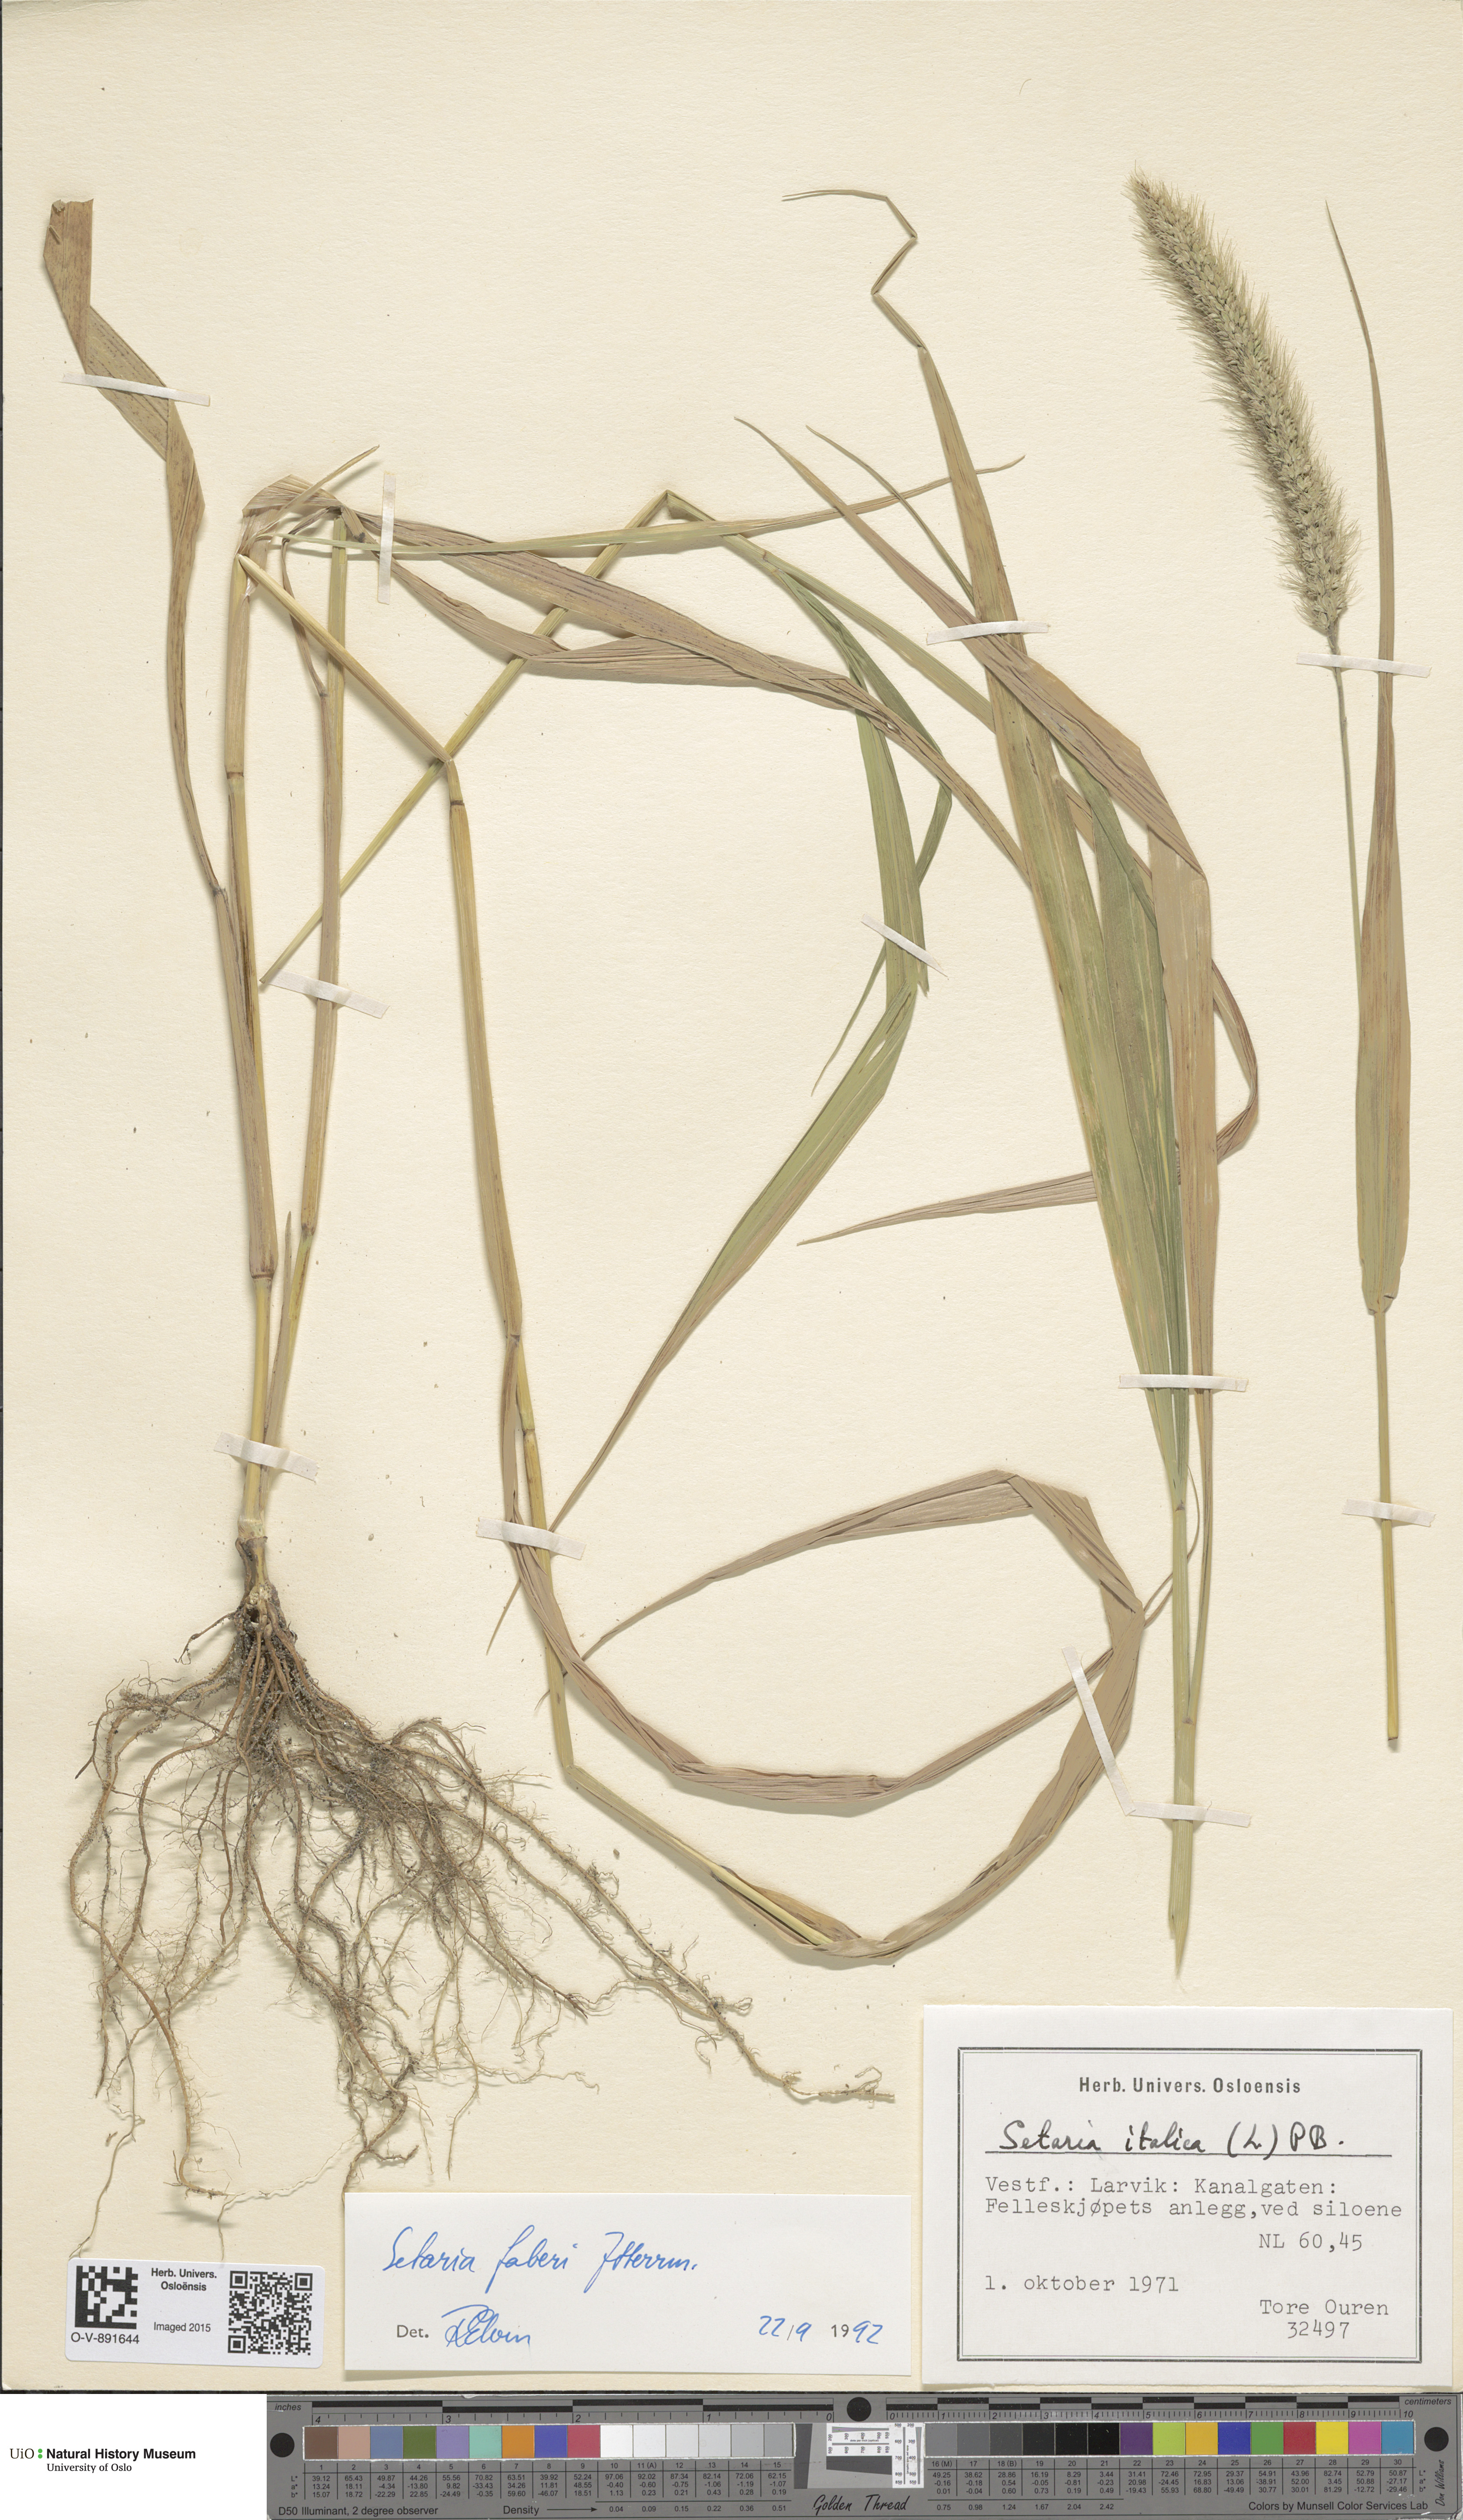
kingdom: Plantae
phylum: Tracheophyta
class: Liliopsida
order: Poales
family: Poaceae
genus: Setaria
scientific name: Setaria faberi
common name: Nodding bristle-grass
